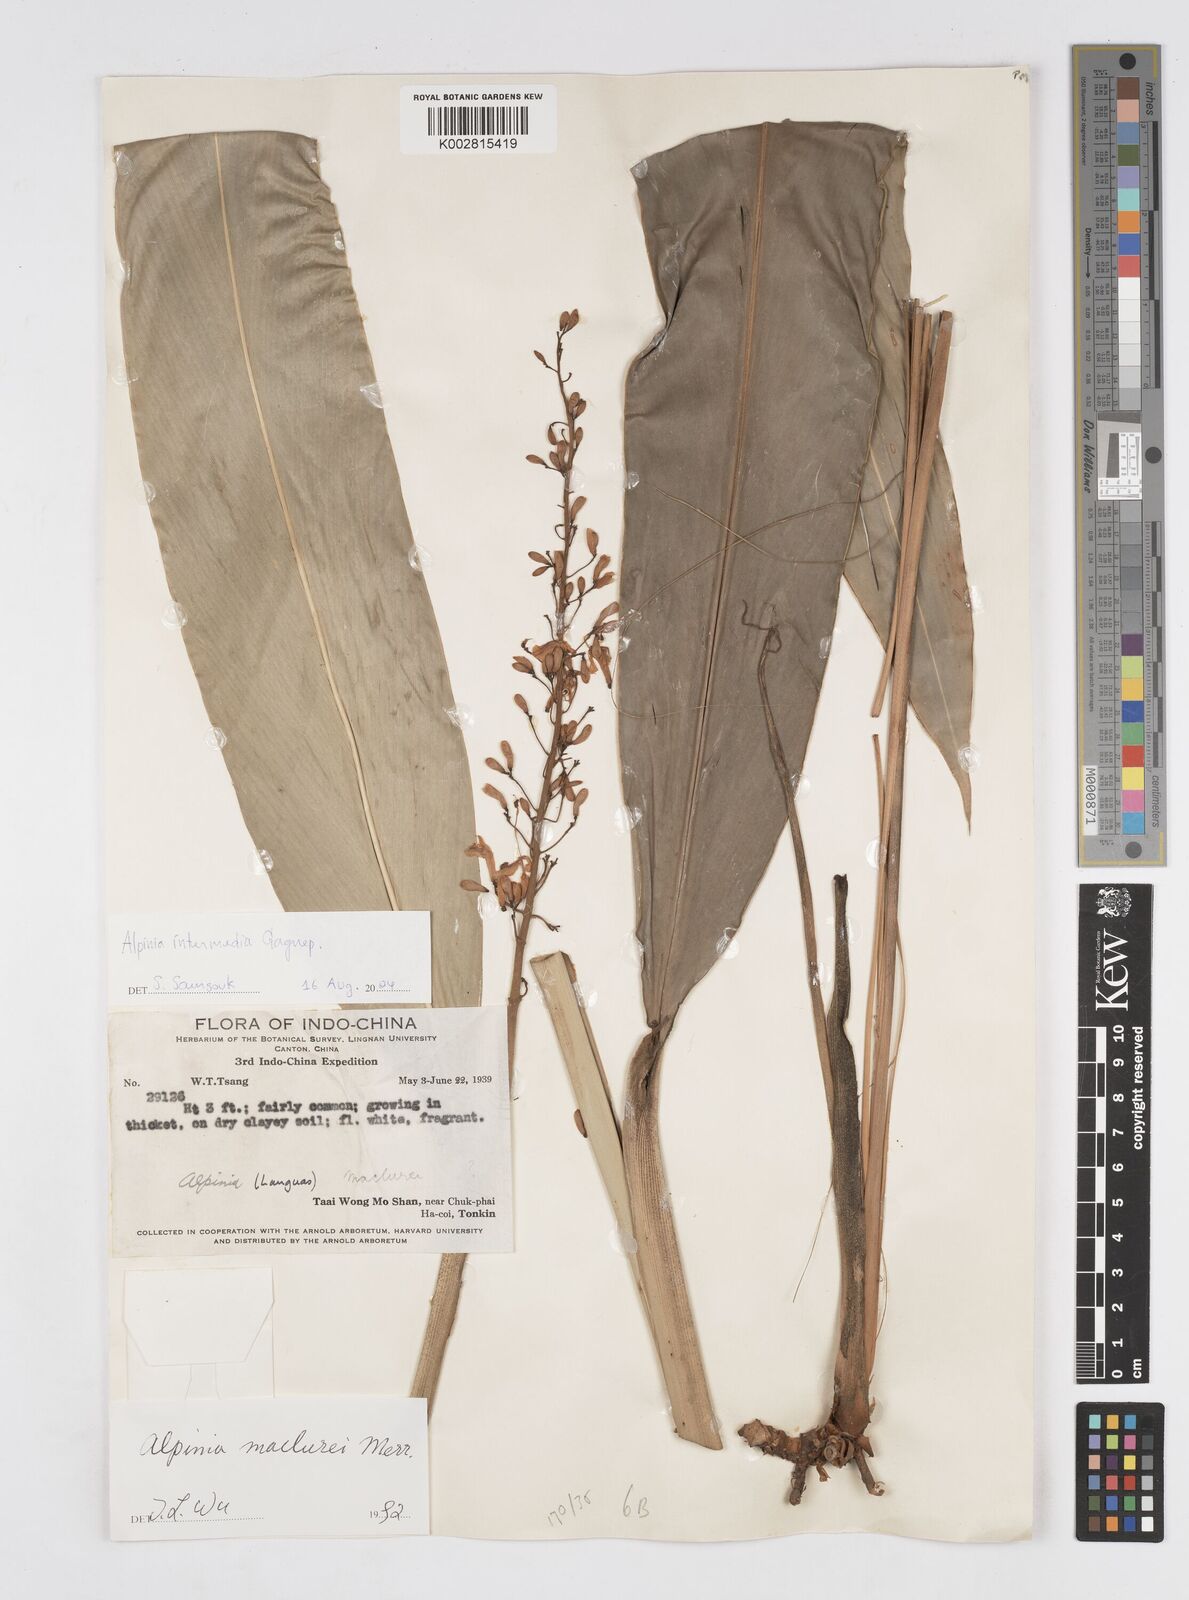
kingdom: Plantae
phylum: Tracheophyta
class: Liliopsida
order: Zingiberales
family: Zingiberaceae
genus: Alpinia
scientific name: Alpinia intermedia
